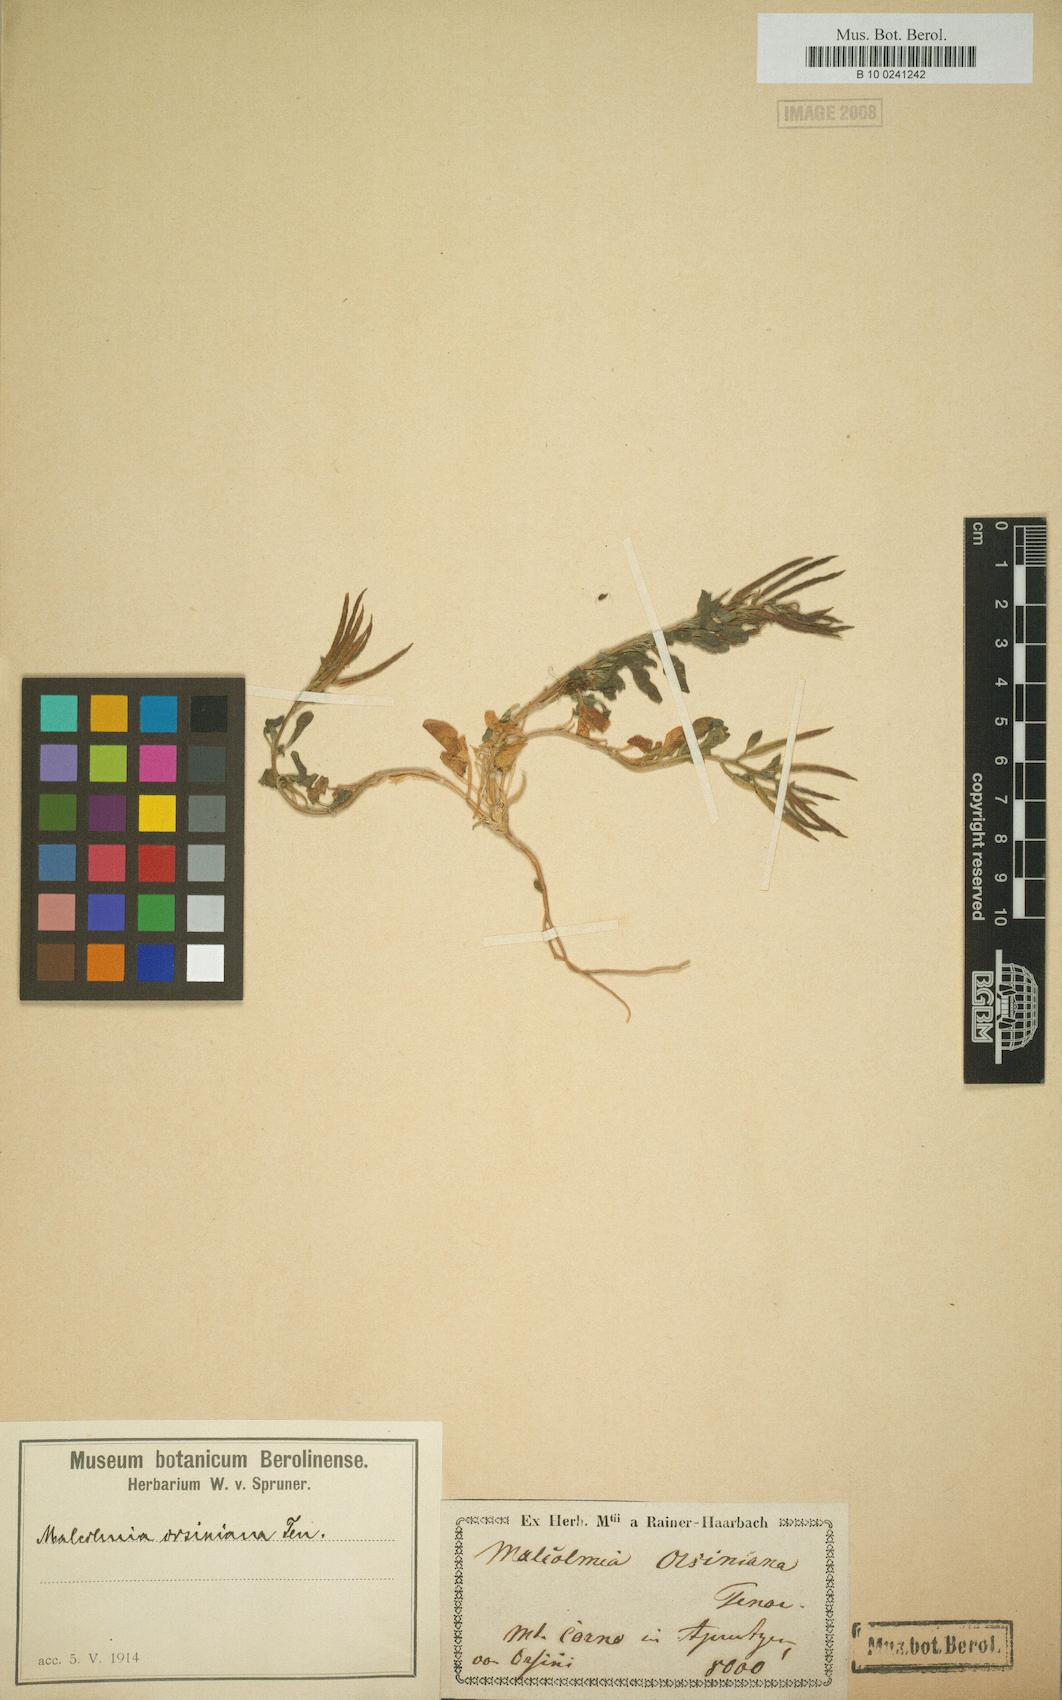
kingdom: Plantae
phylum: Tracheophyta
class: Magnoliopsida
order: Brassicales
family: Brassicaceae
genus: Malcolmia
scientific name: Malcolmia orsiniana
